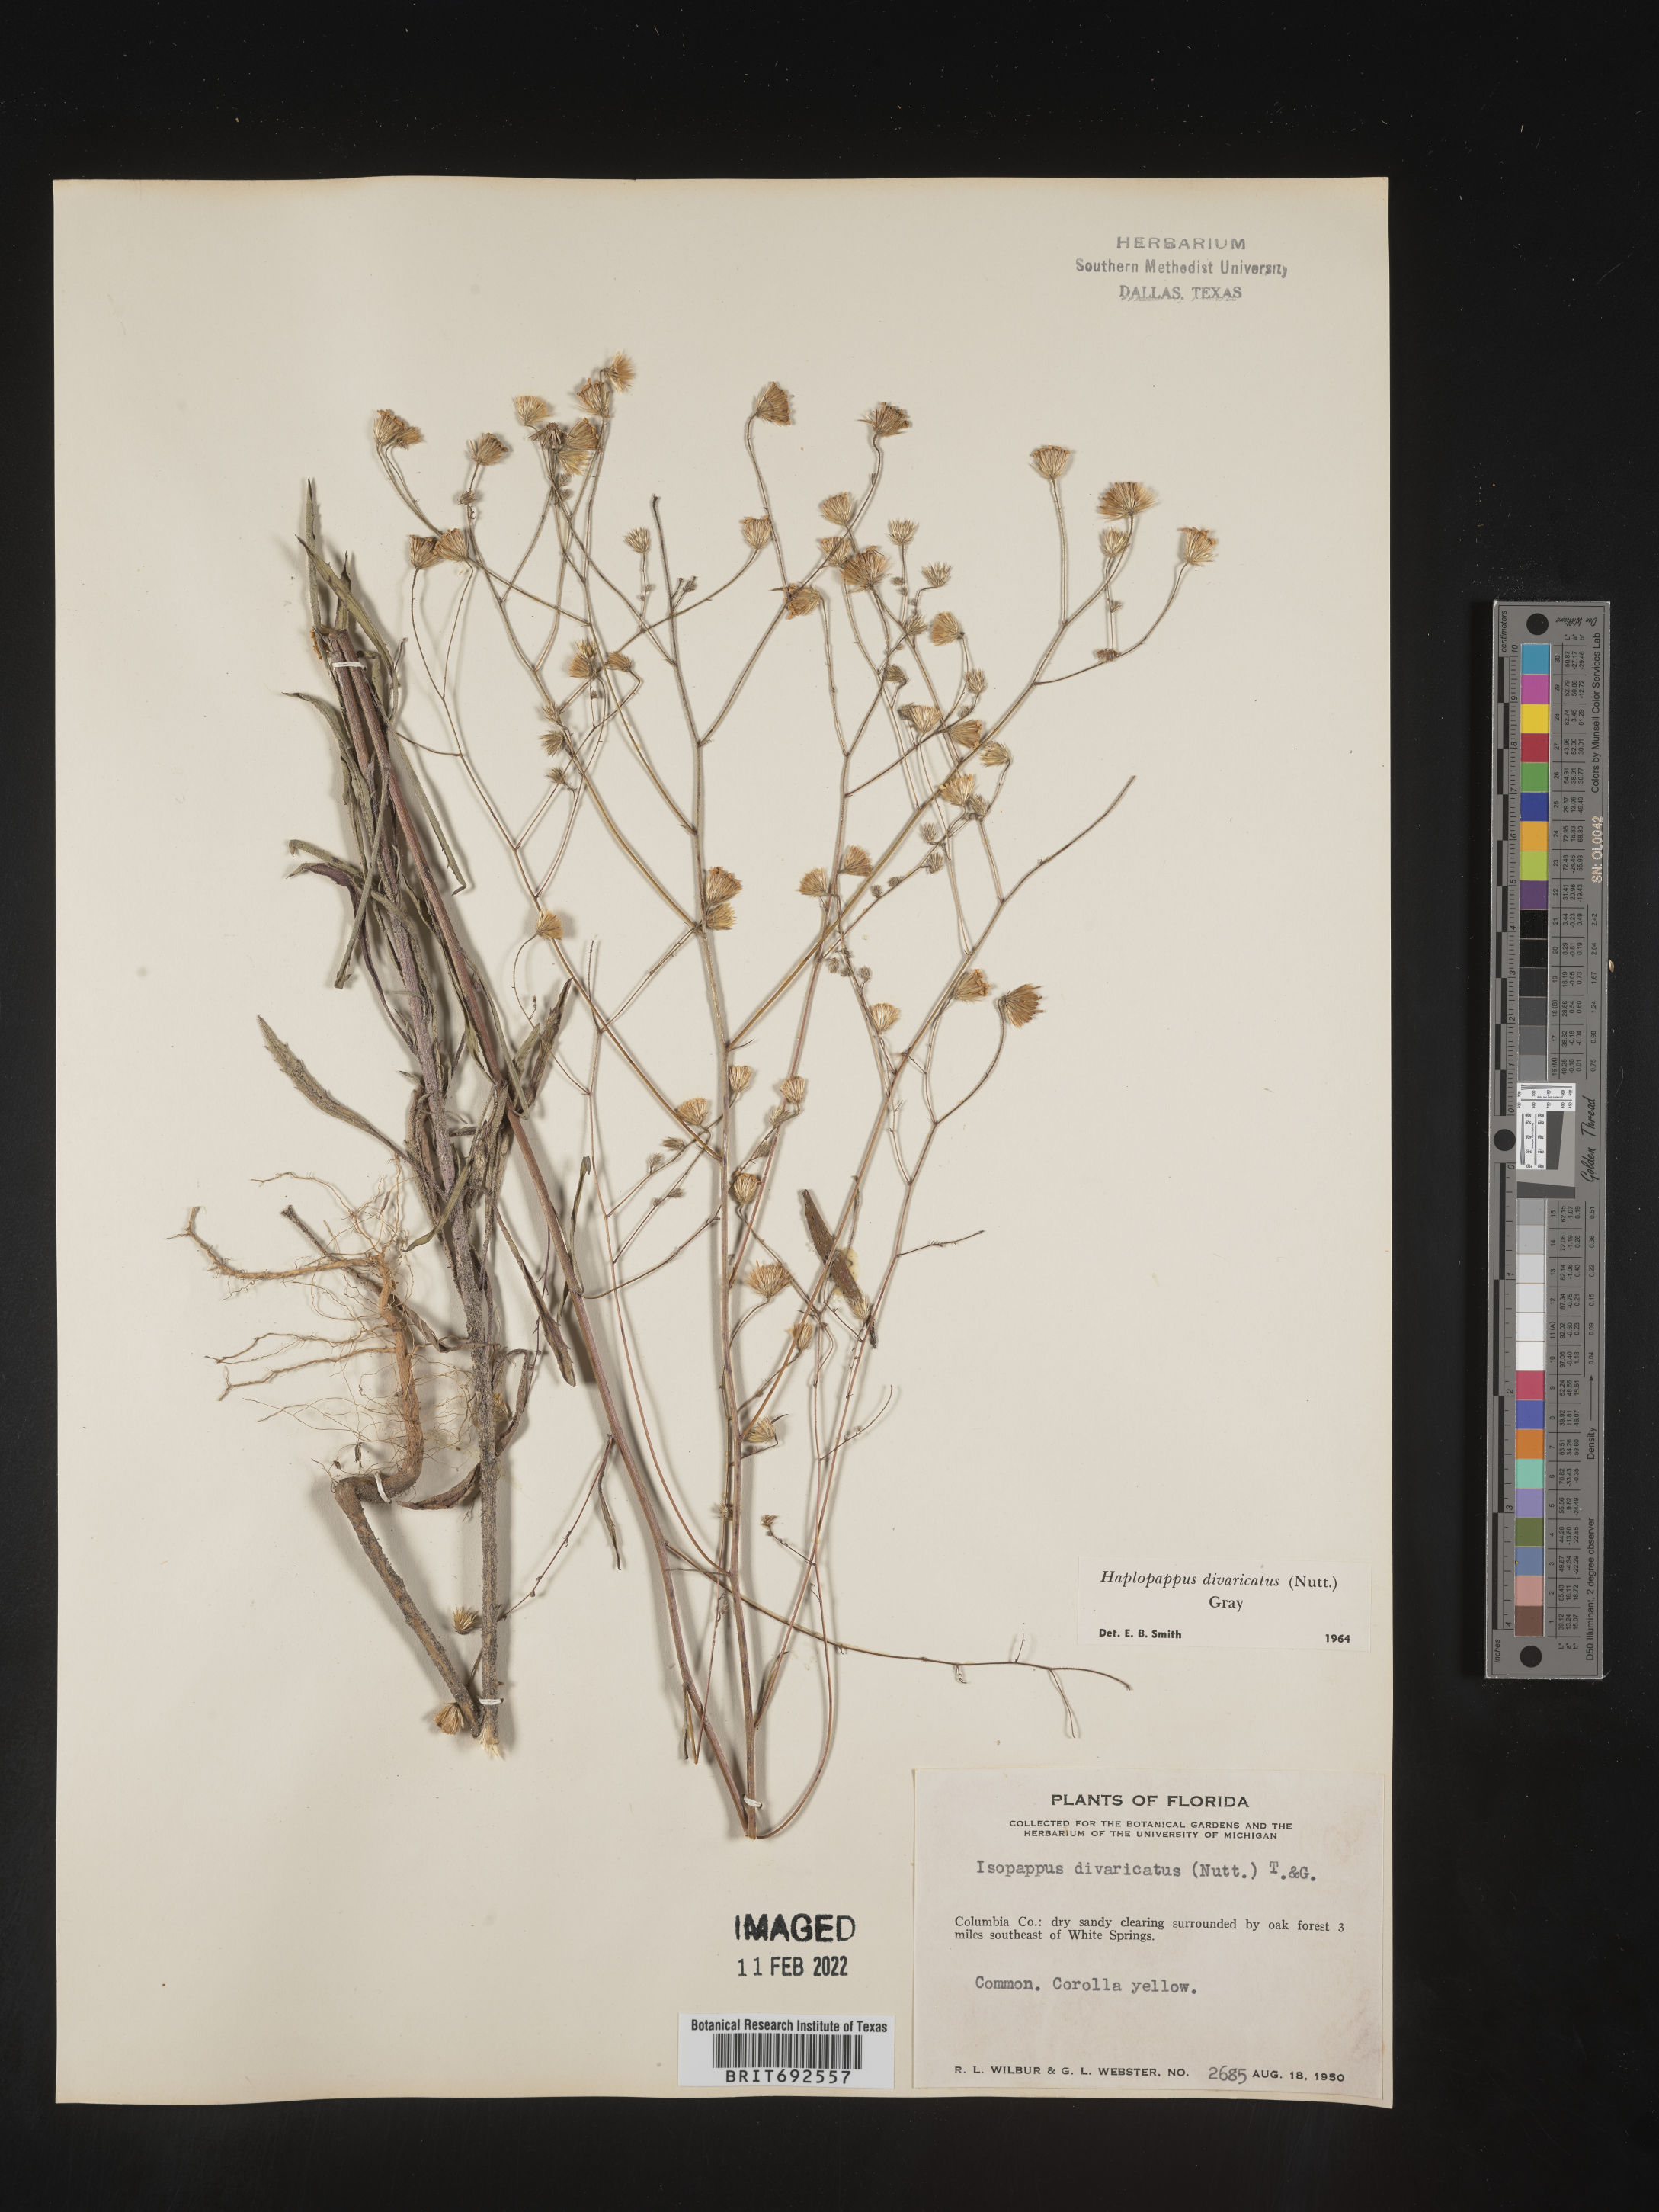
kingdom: Plantae
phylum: Tracheophyta
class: Magnoliopsida
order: Asterales
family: Asteraceae
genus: Croptilon
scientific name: Croptilon divaricatum
